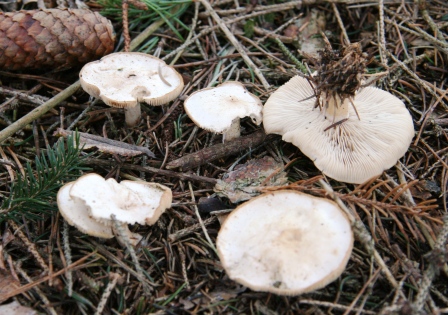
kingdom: Fungi
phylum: Basidiomycota
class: Agaricomycetes
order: Agaricales
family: Tricholomataceae
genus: Clitocybe
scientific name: Clitocybe phyllophila
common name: løv-tragthat
